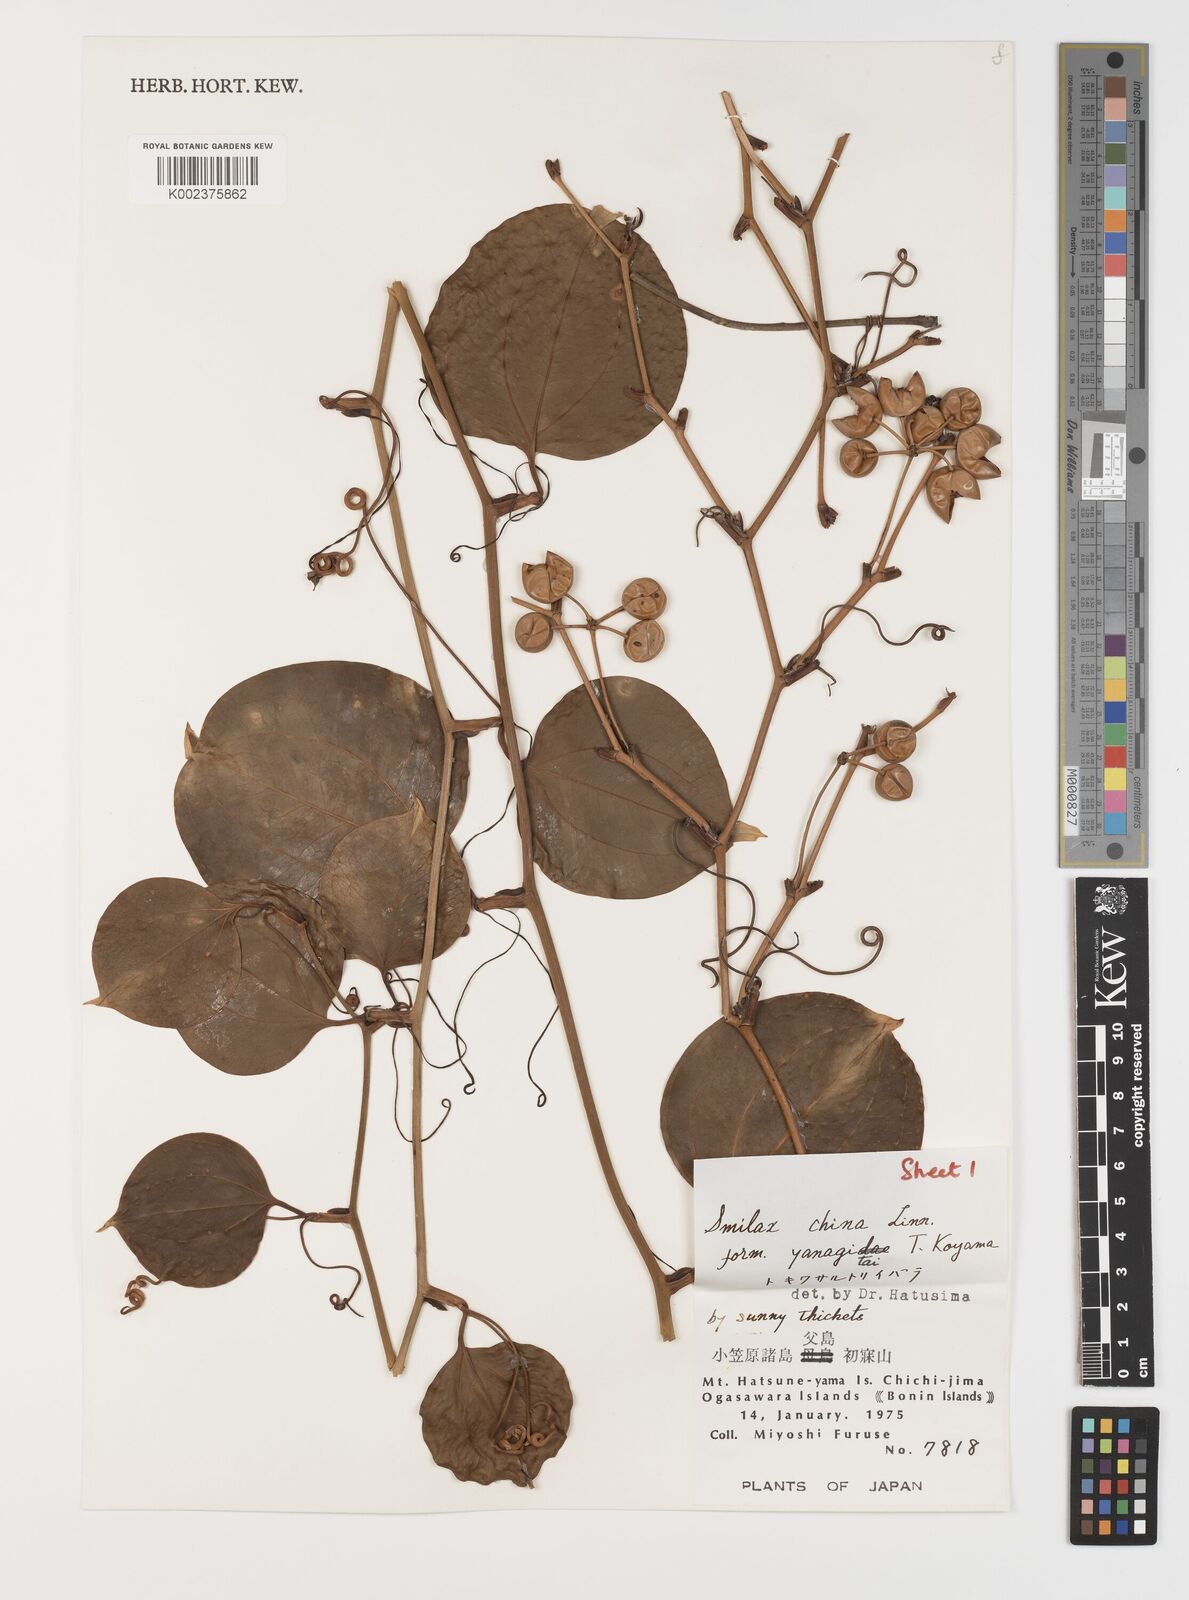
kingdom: Plantae
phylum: Tracheophyta
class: Liliopsida
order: Liliales
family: Smilacaceae
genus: Smilax
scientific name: Smilax china
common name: Chinaroot
